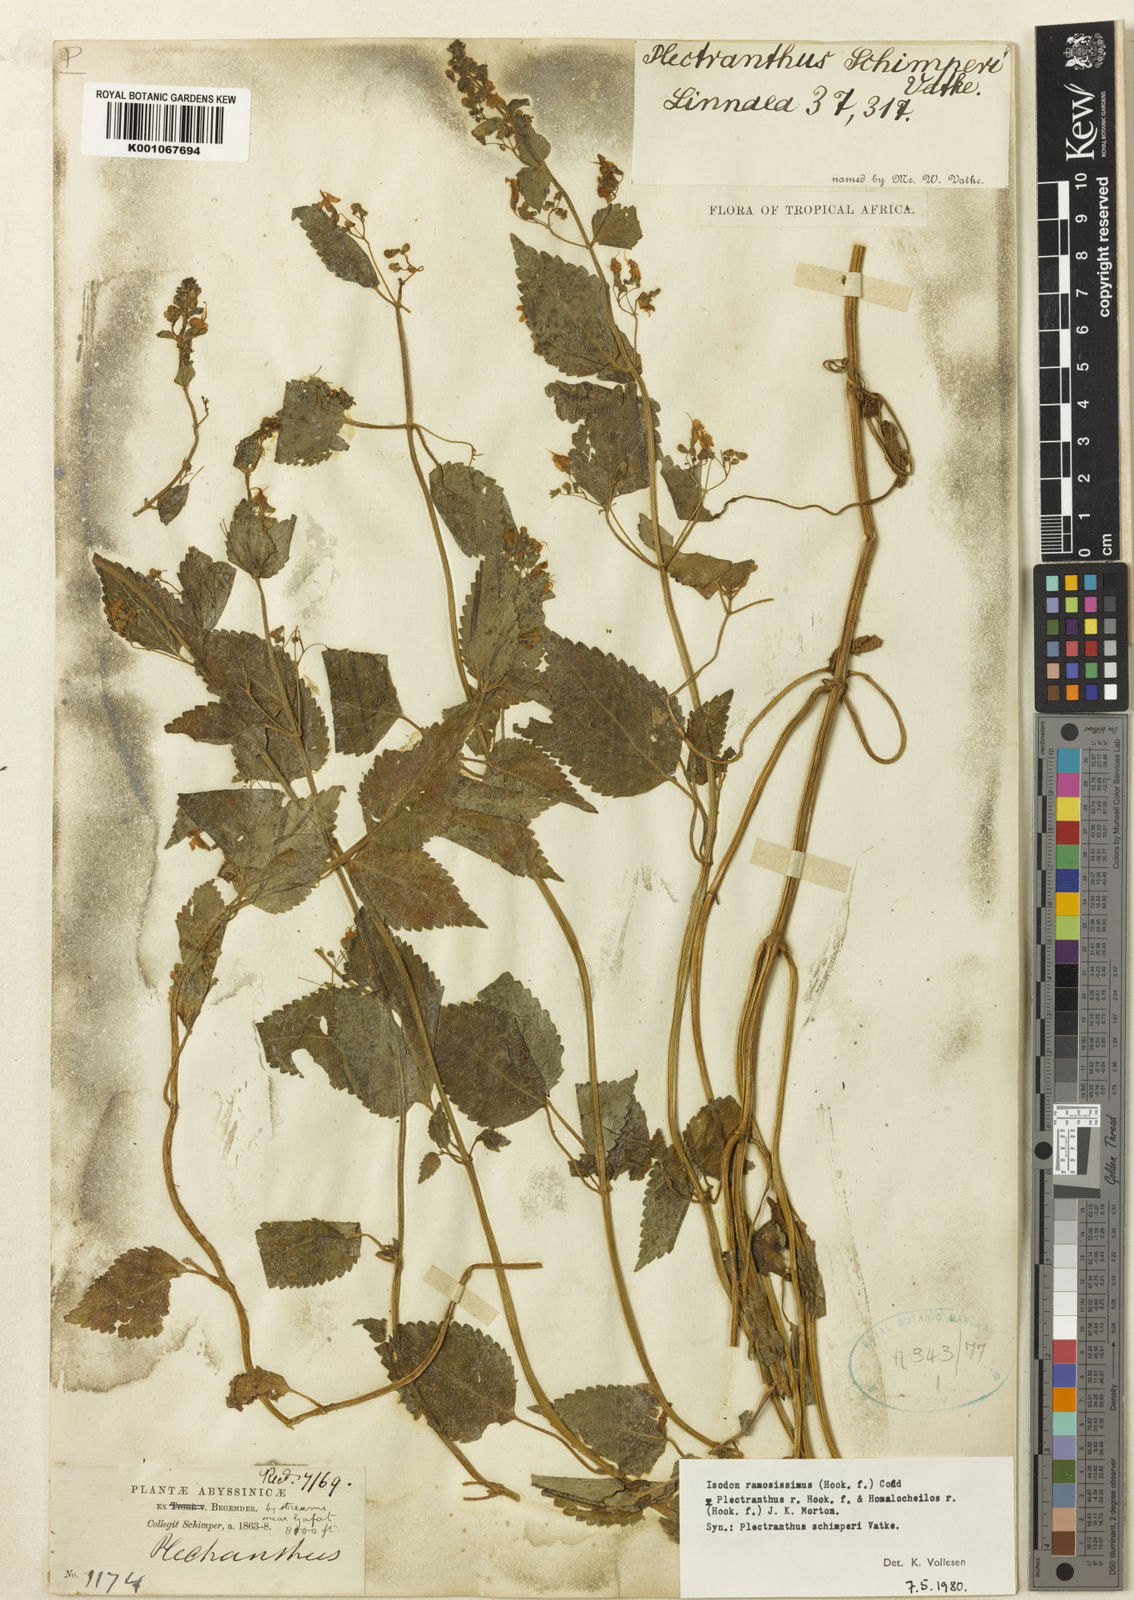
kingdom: Plantae
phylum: Tracheophyta
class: Magnoliopsida
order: Lamiales
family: Lamiaceae
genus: Isodon
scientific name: Isodon schimperi
